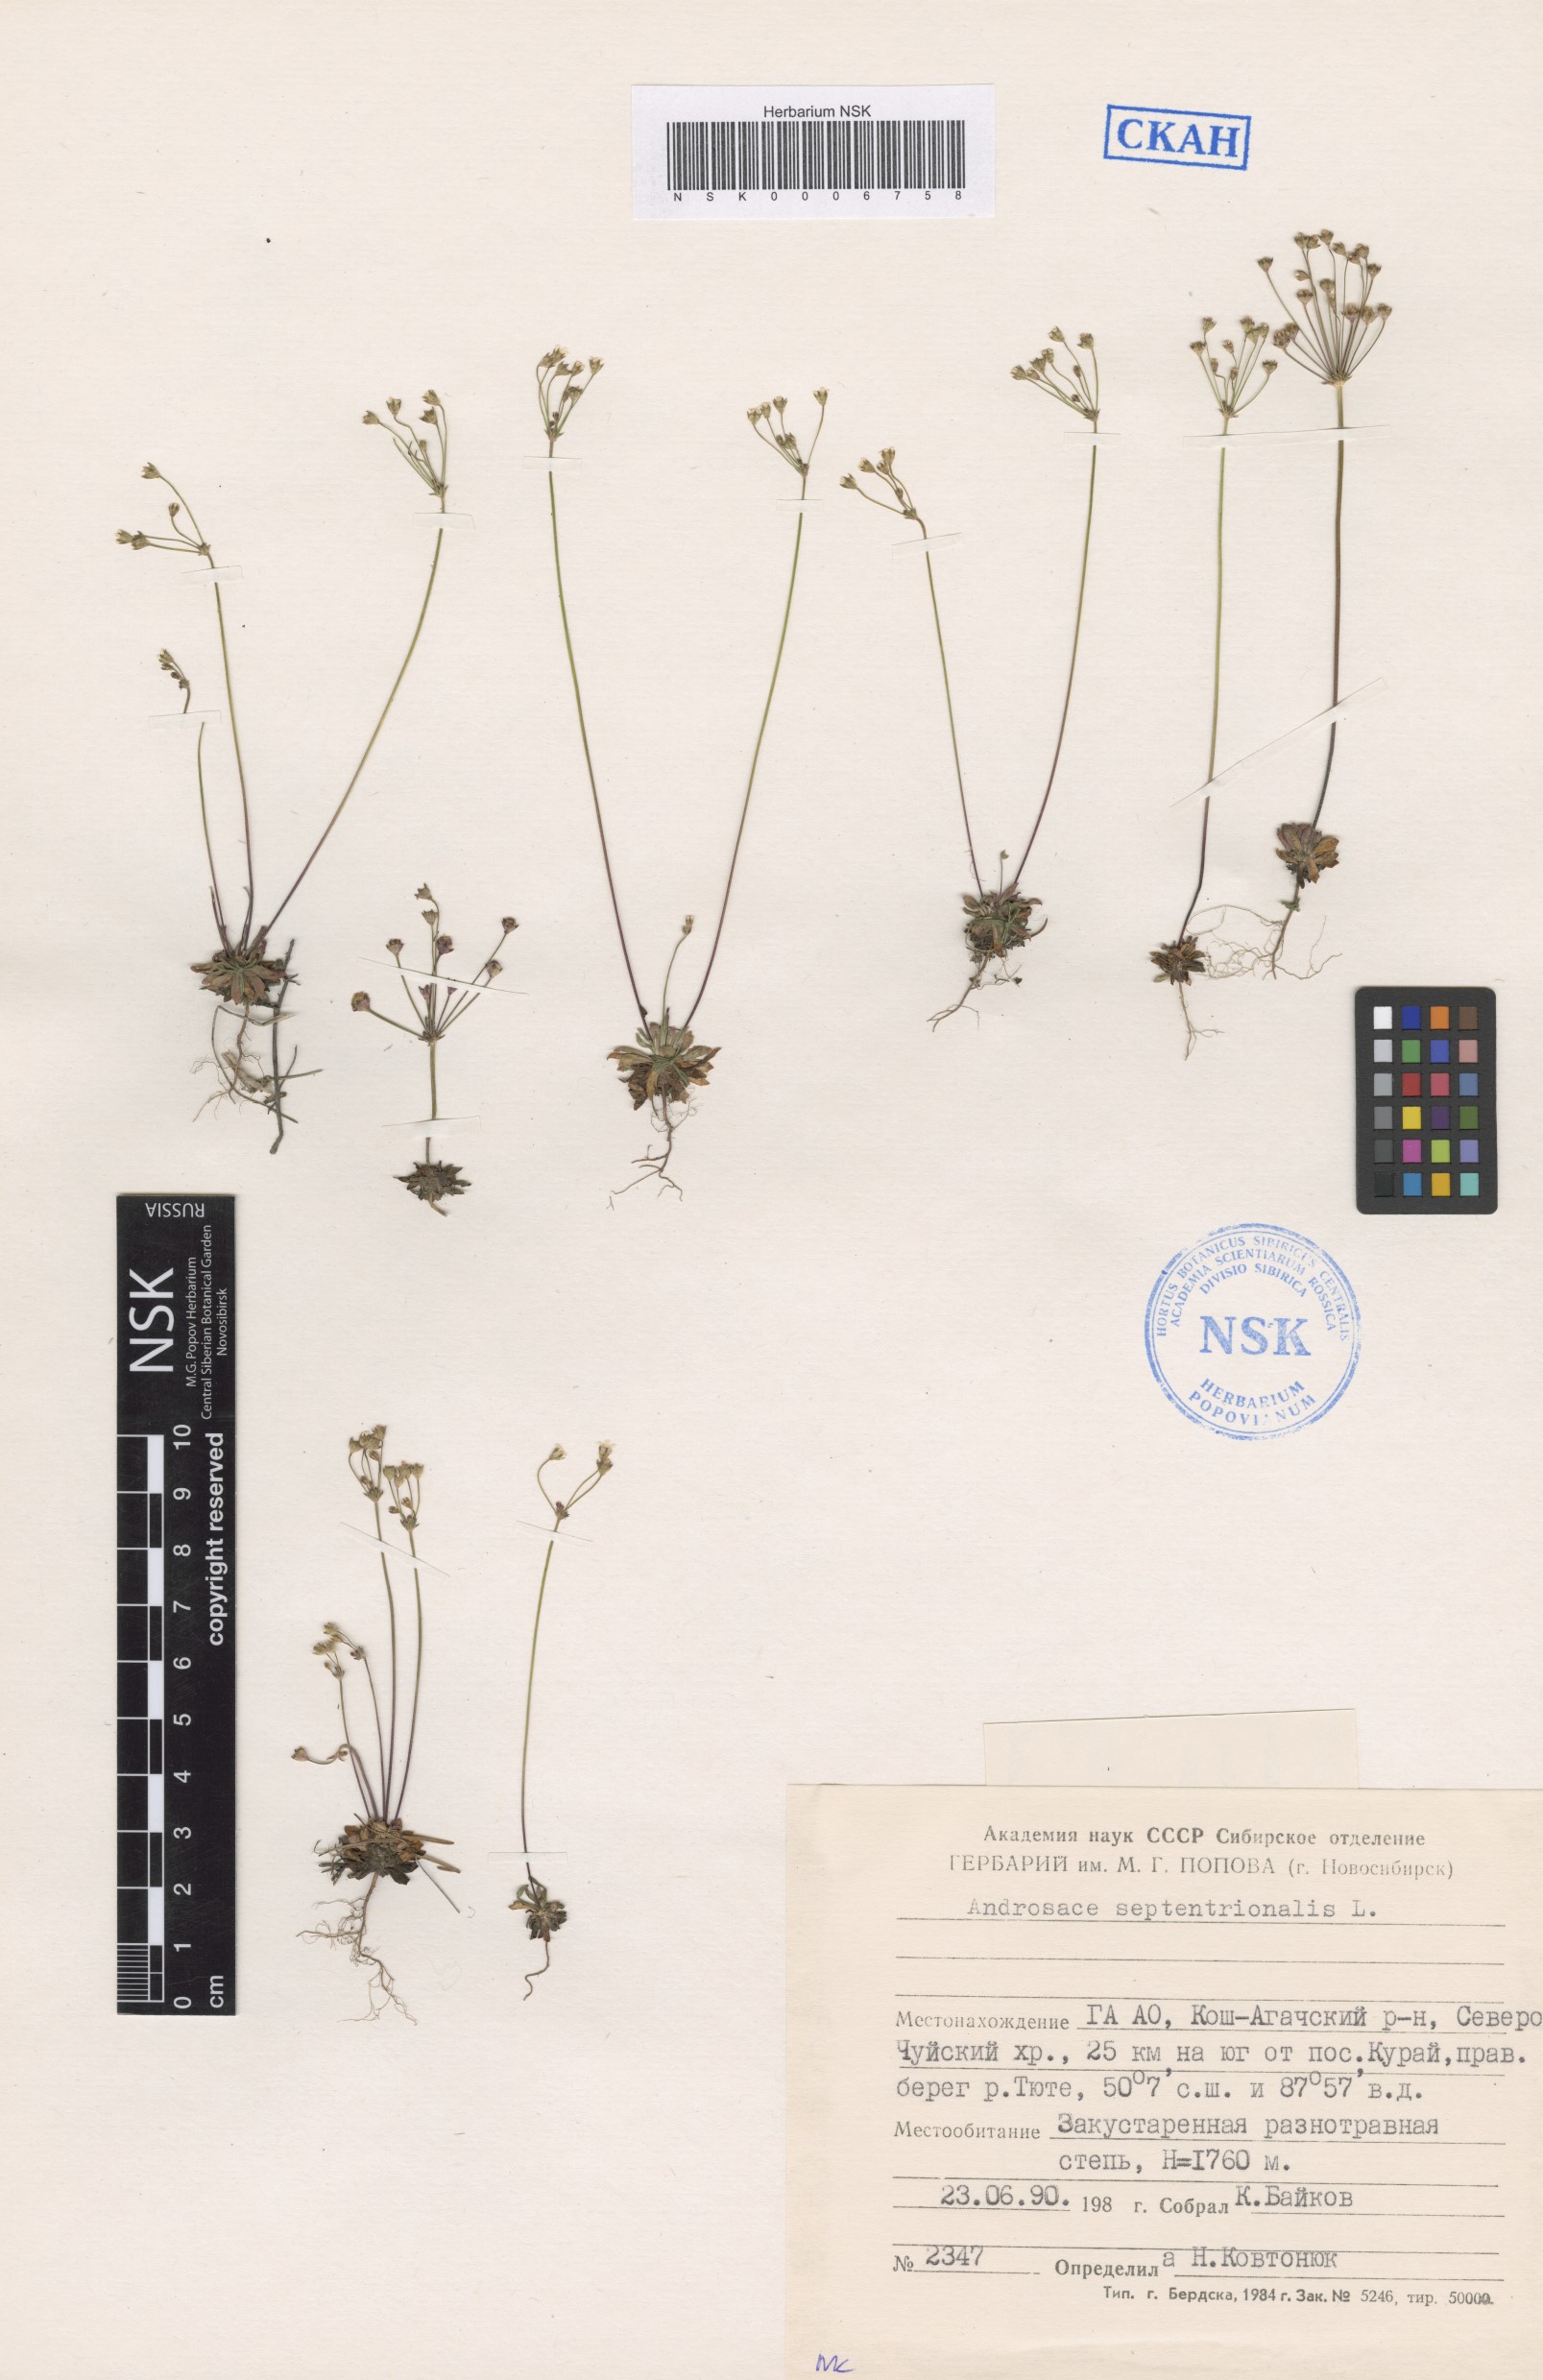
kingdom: Plantae
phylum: Tracheophyta
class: Magnoliopsida
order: Ericales
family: Primulaceae
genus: Androsace
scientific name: Androsace septentrionalis
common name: Hairy northern fairy-candelabra
